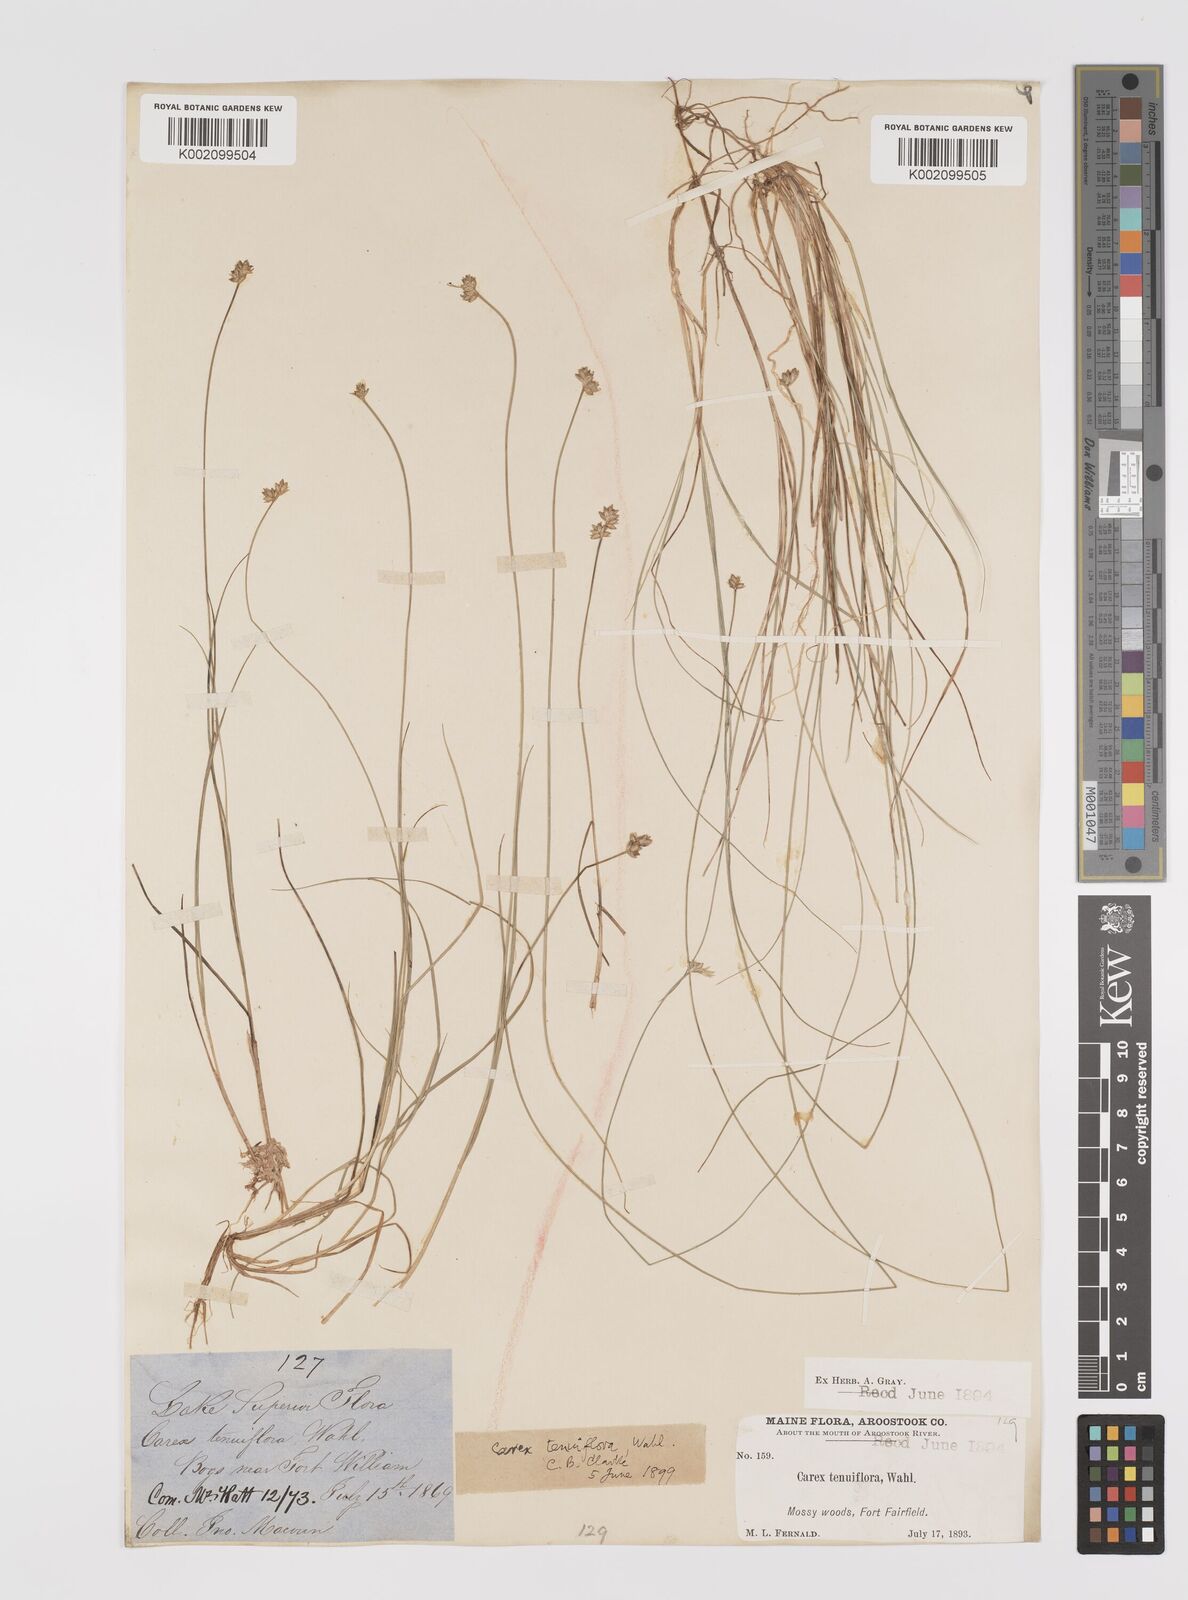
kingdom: Plantae
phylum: Tracheophyta
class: Liliopsida
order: Poales
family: Cyperaceae
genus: Carex
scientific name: Carex tenuiflora
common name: Sparse-flowered sedge
